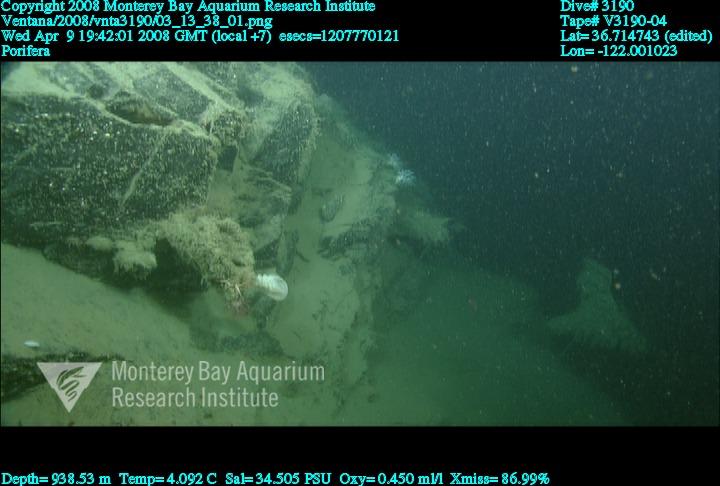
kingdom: Animalia
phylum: Porifera
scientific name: Porifera
